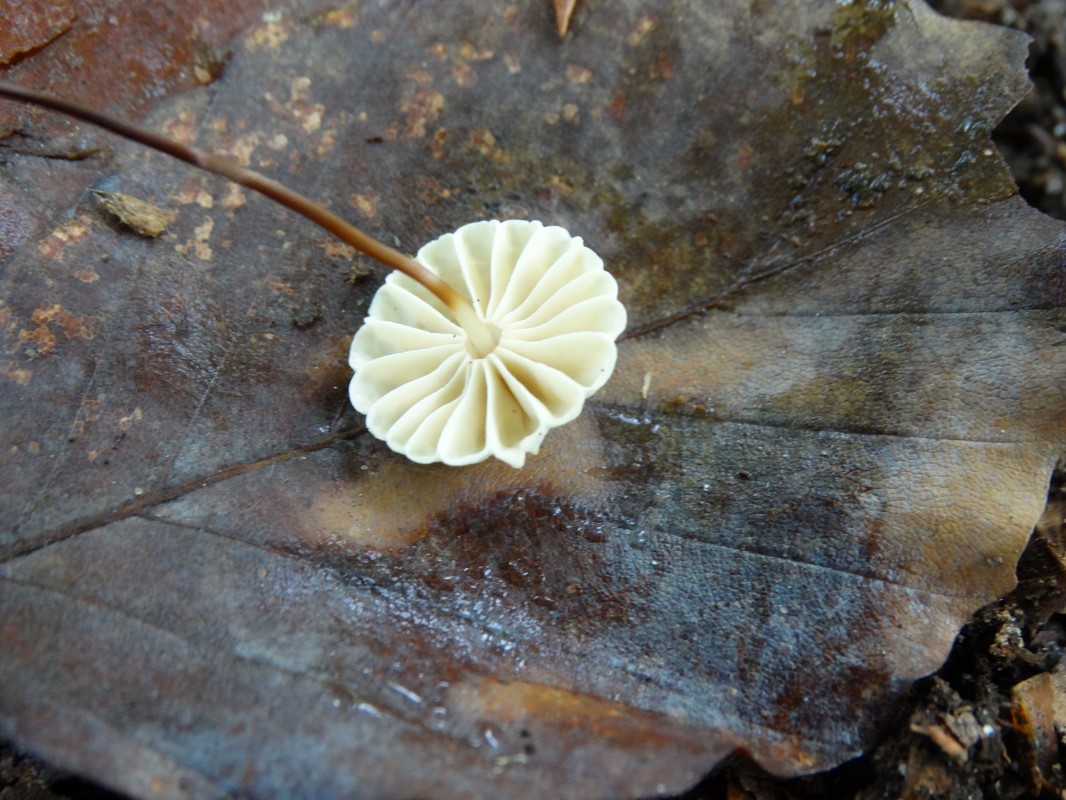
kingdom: Fungi
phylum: Basidiomycota
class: Agaricomycetes
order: Agaricales
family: Marasmiaceae
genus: Marasmius
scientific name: Marasmius rotula
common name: hjul-bruskhat
